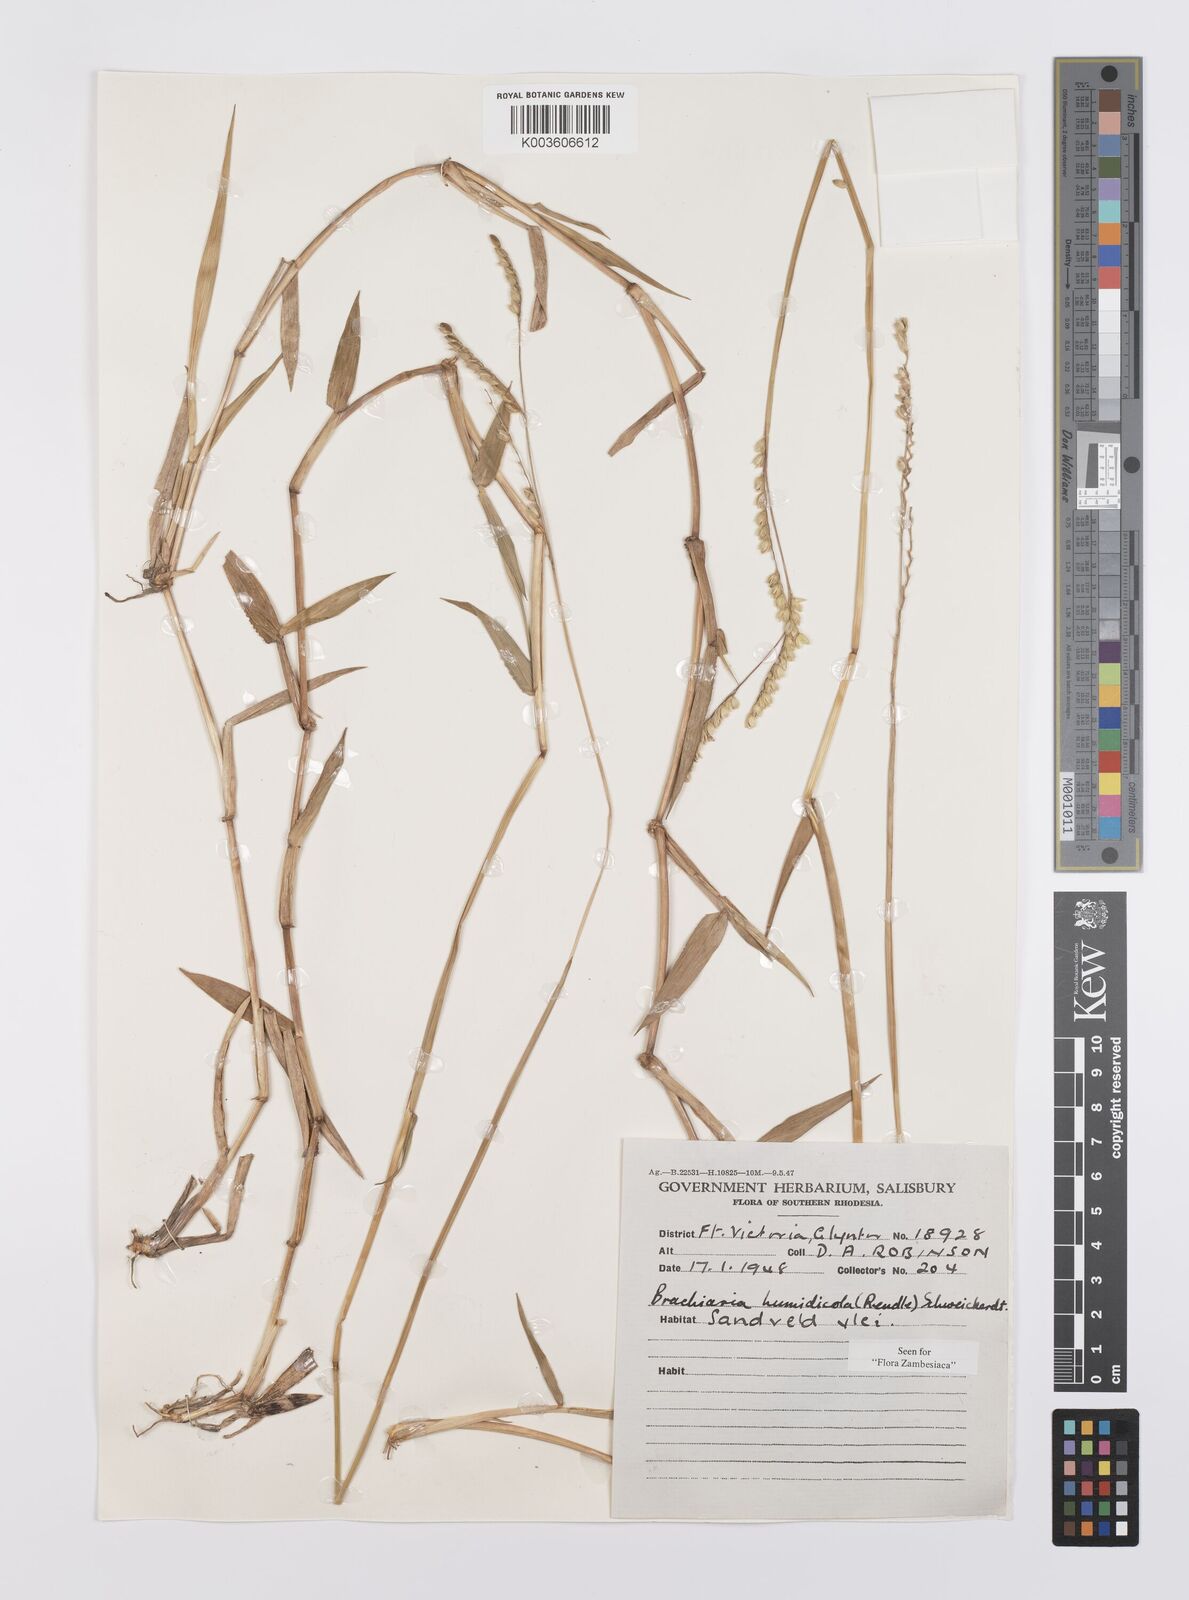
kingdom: Plantae
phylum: Tracheophyta
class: Liliopsida
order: Poales
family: Poaceae
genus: Urochloa
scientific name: Urochloa dictyoneura
